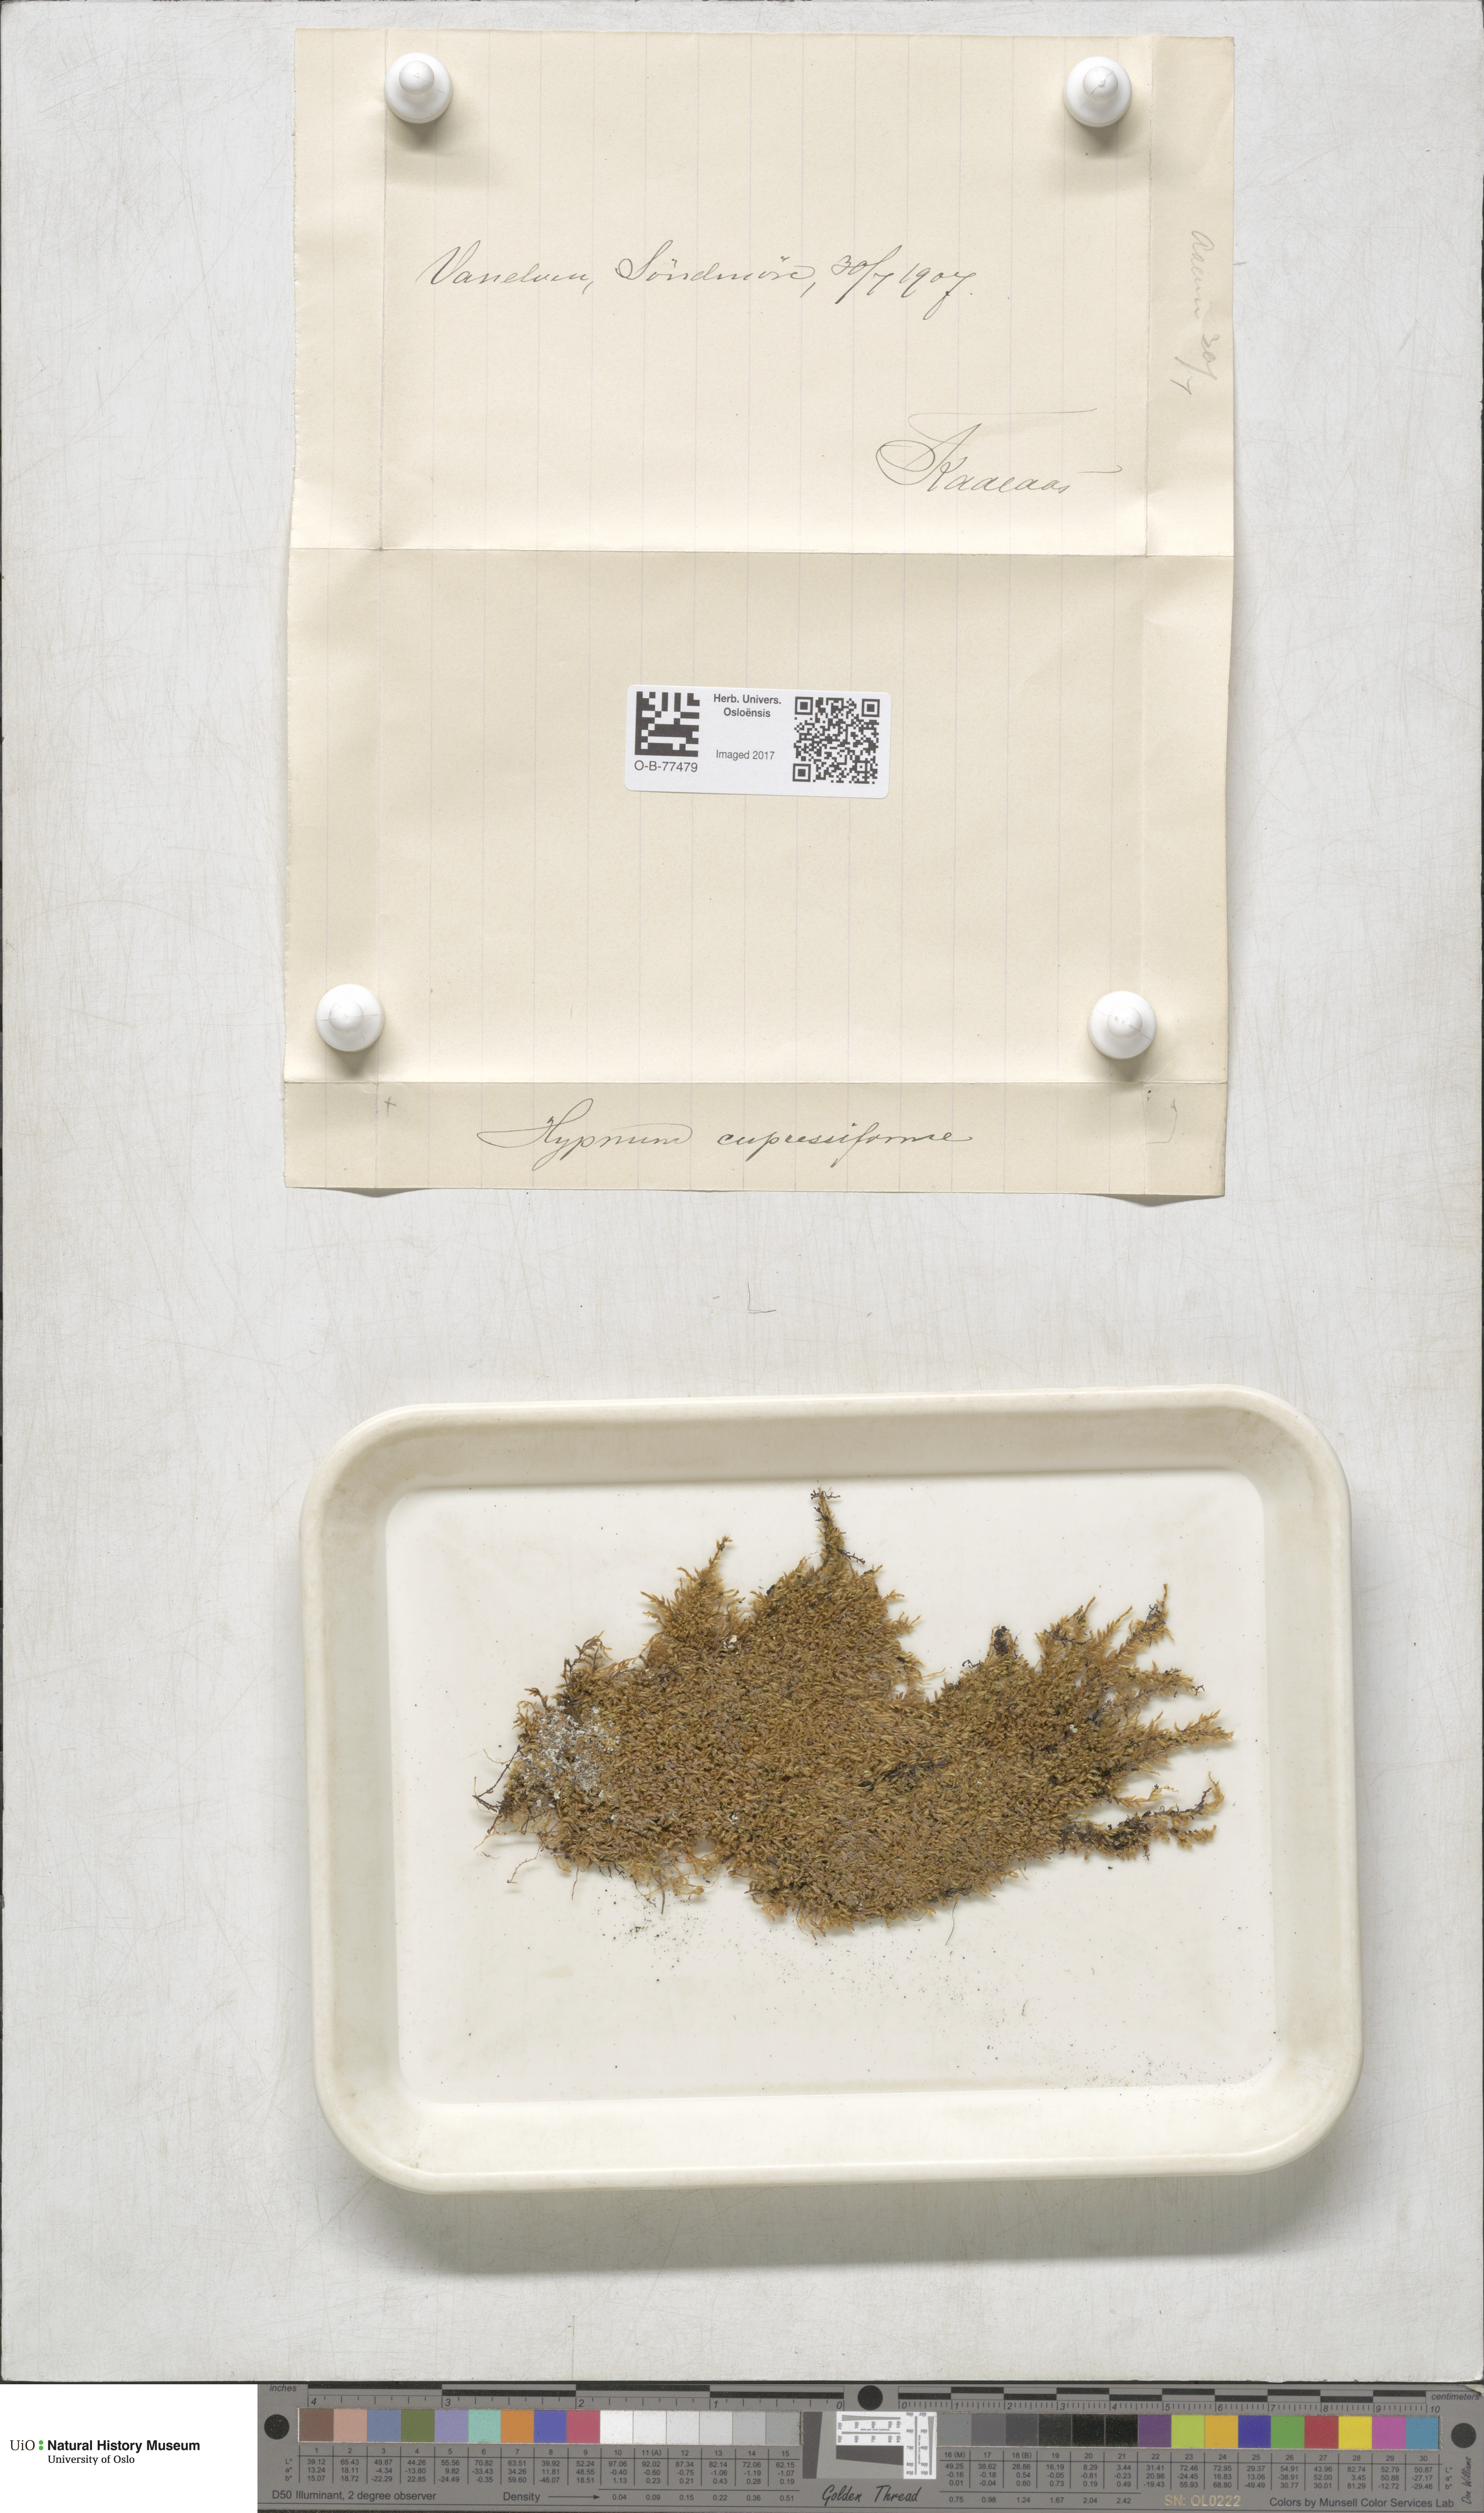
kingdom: Plantae
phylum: Bryophyta
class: Bryopsida
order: Hypnales
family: Hypnaceae
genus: Hypnum
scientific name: Hypnum cupressiforme
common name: Cypress-leaved plait-moss
